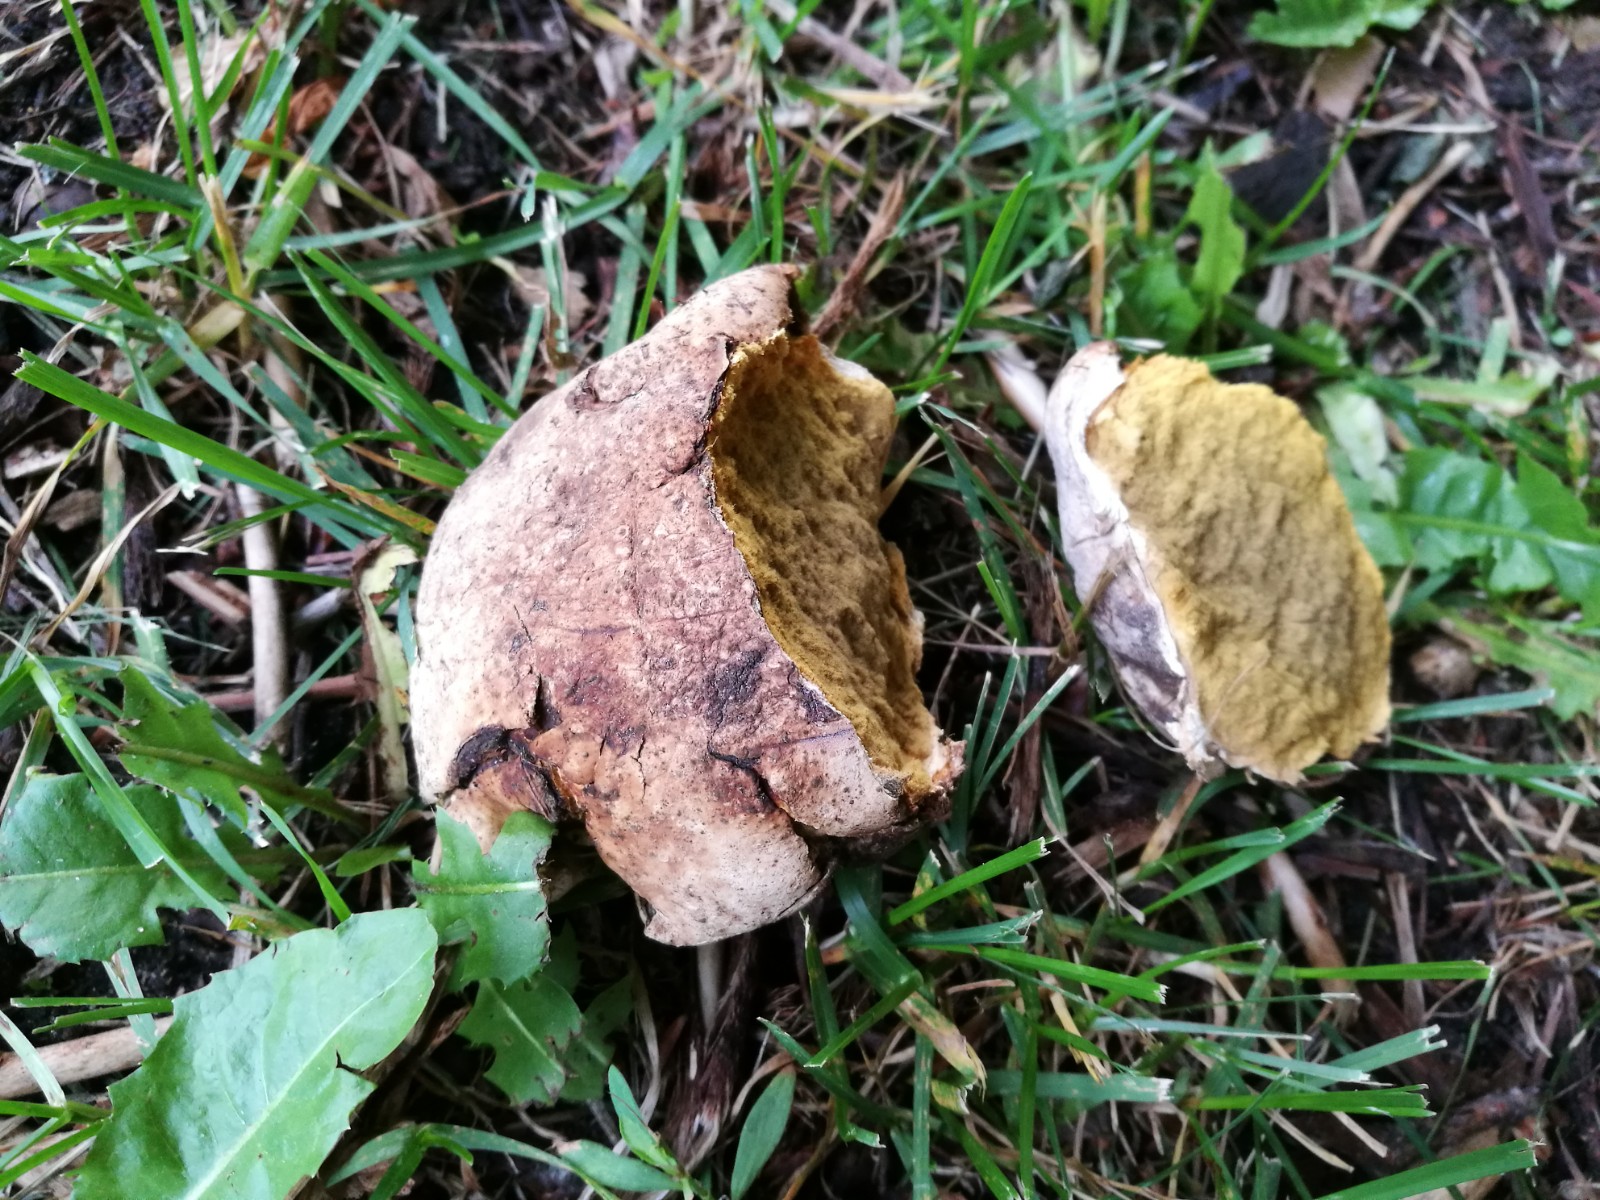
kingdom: Fungi
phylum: Basidiomycota
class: Agaricomycetes
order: Agaricales
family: Lycoperdaceae
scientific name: Lycoperdaceae
